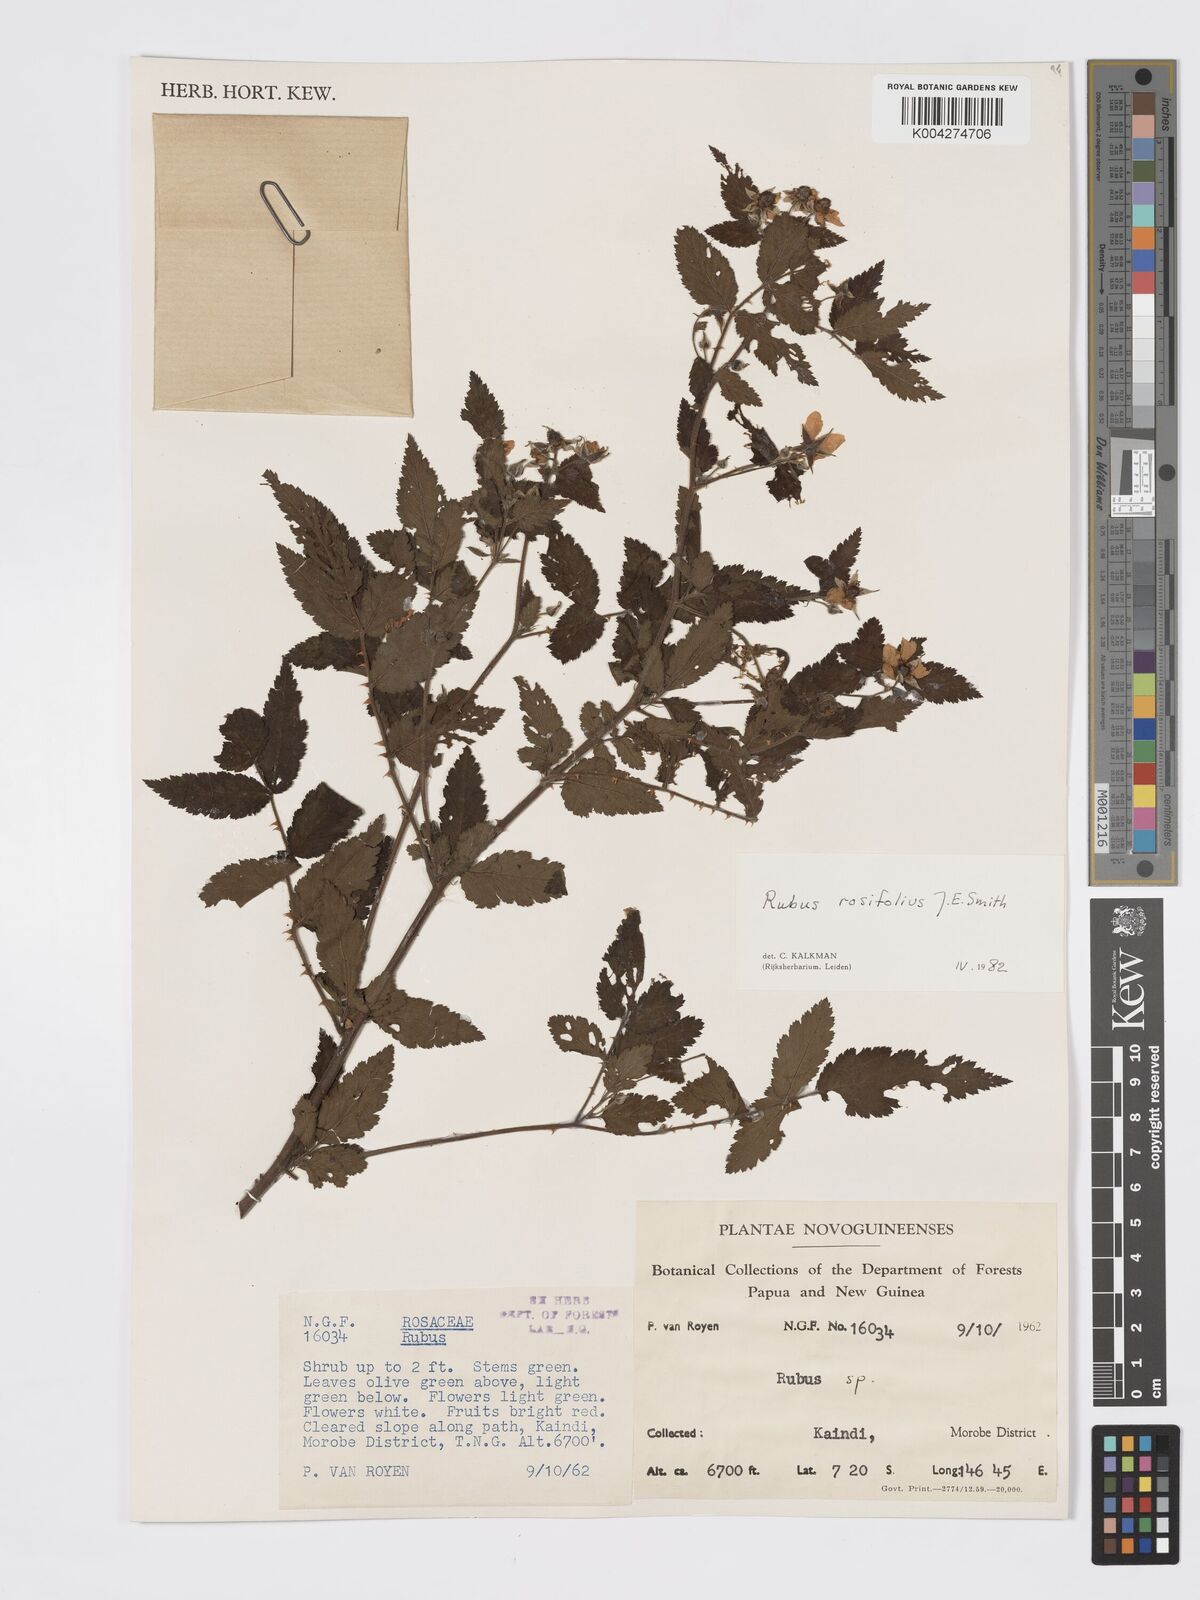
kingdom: Plantae
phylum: Tracheophyta
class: Magnoliopsida
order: Rosales
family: Rosaceae
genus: Rubus
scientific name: Rubus
